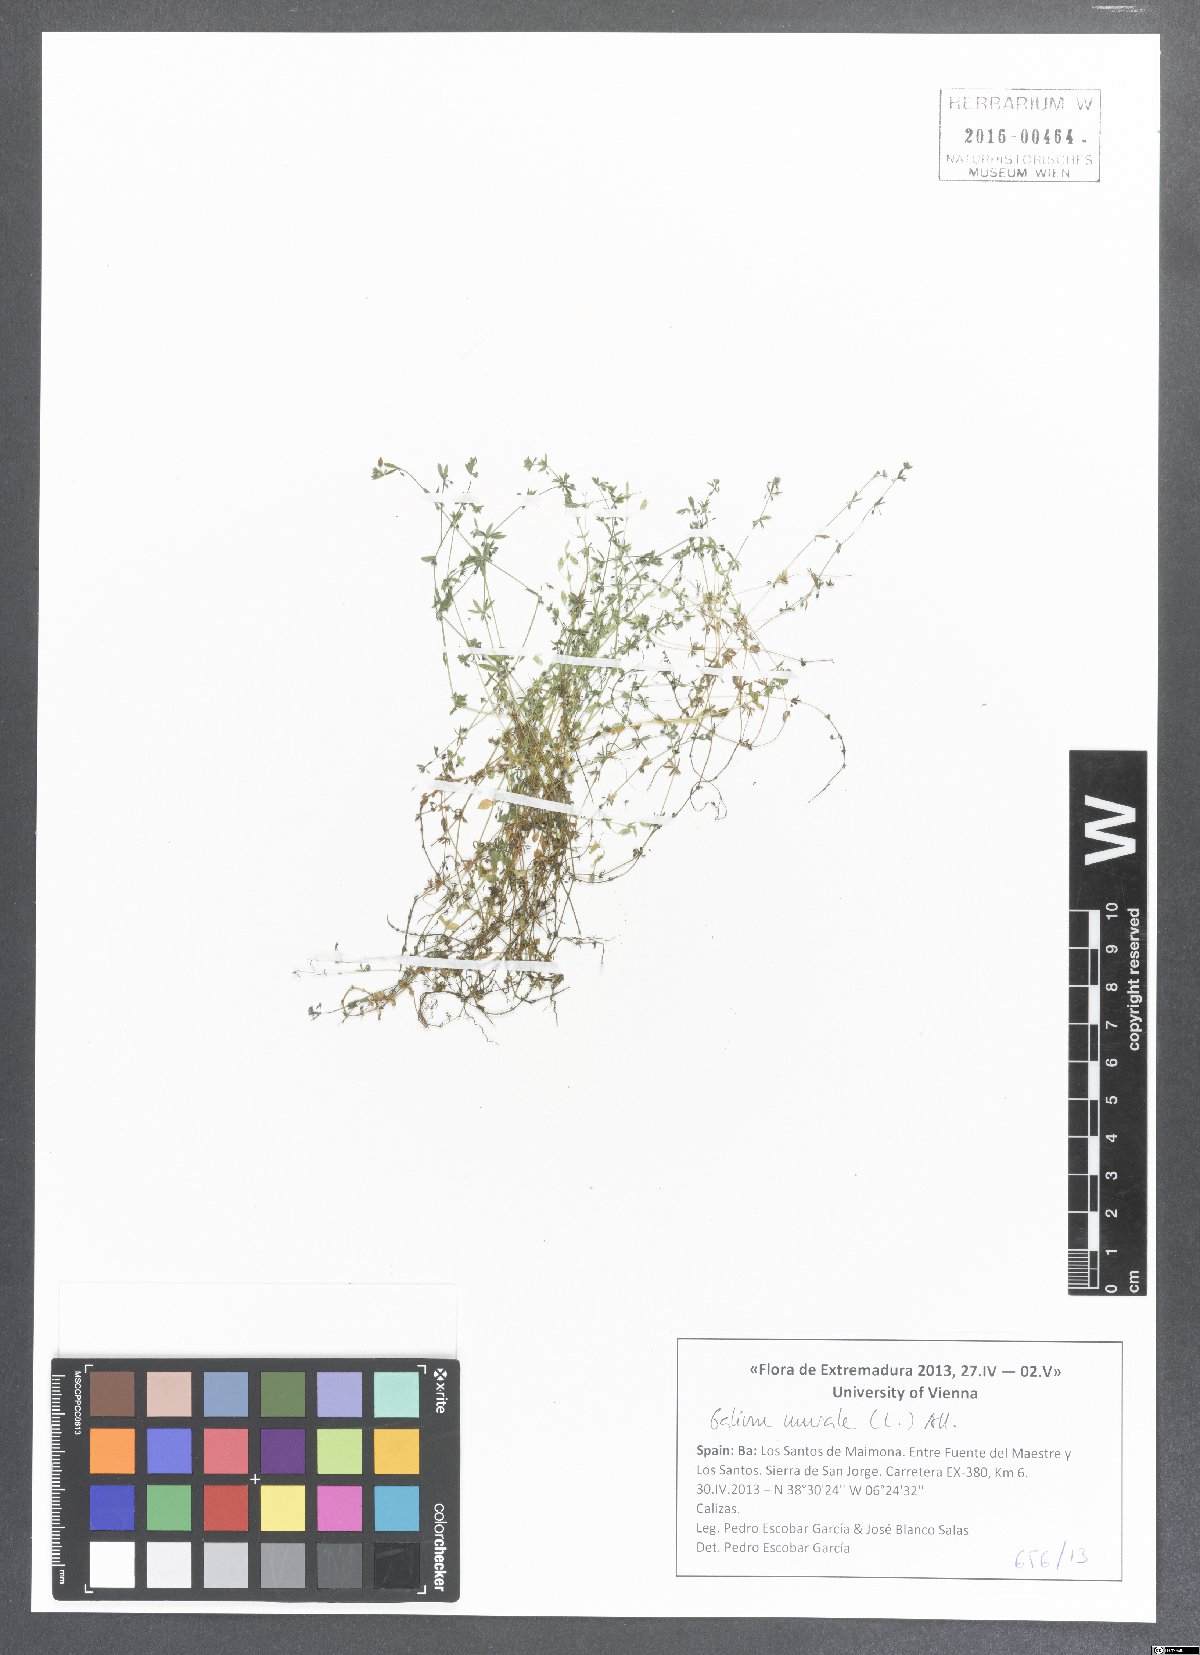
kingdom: Plantae
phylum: Tracheophyta
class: Magnoliopsida
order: Gentianales
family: Rubiaceae
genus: Galium
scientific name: Galium murale
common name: Yellow wall bedstraw
